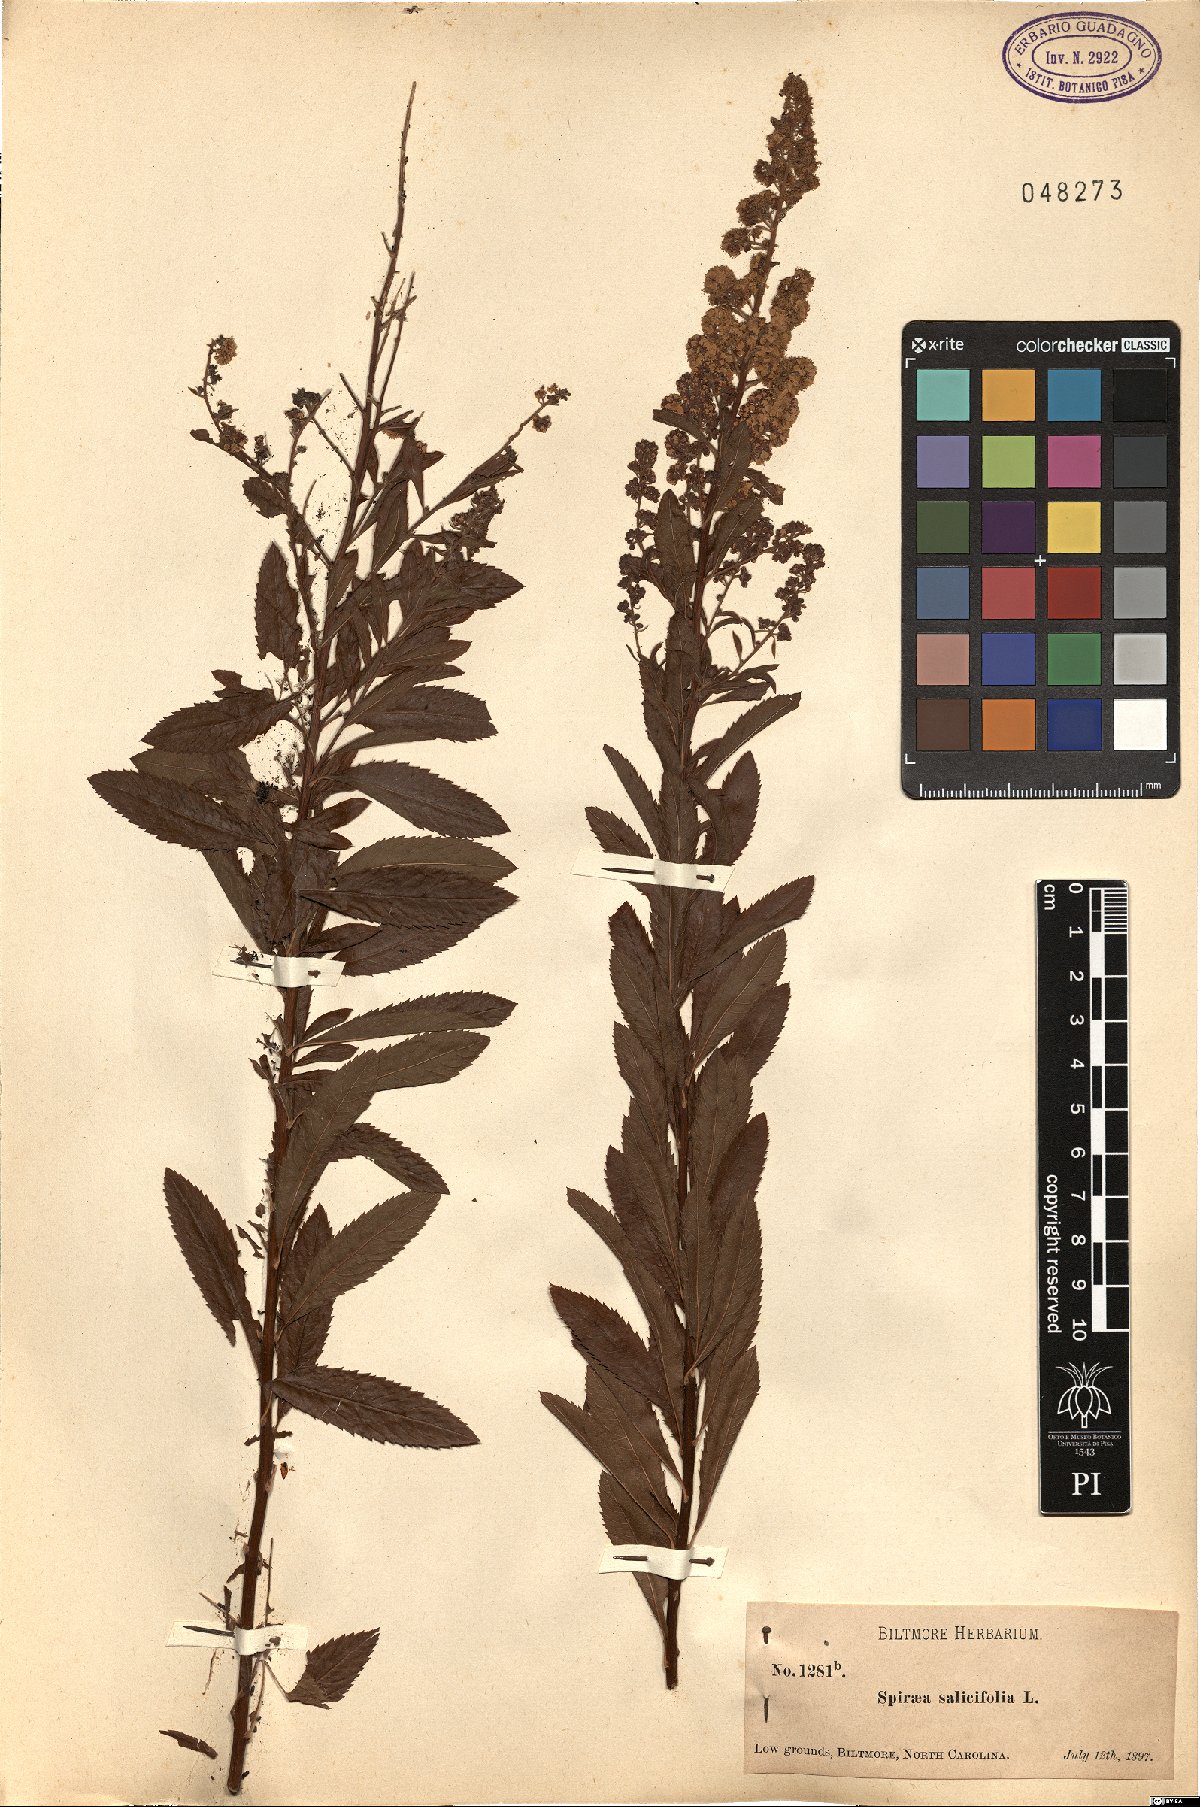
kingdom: Plantae
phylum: Tracheophyta
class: Magnoliopsida
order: Rosales
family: Rosaceae
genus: Spiraea
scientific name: Spiraea salicifolia
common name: Bridewort
